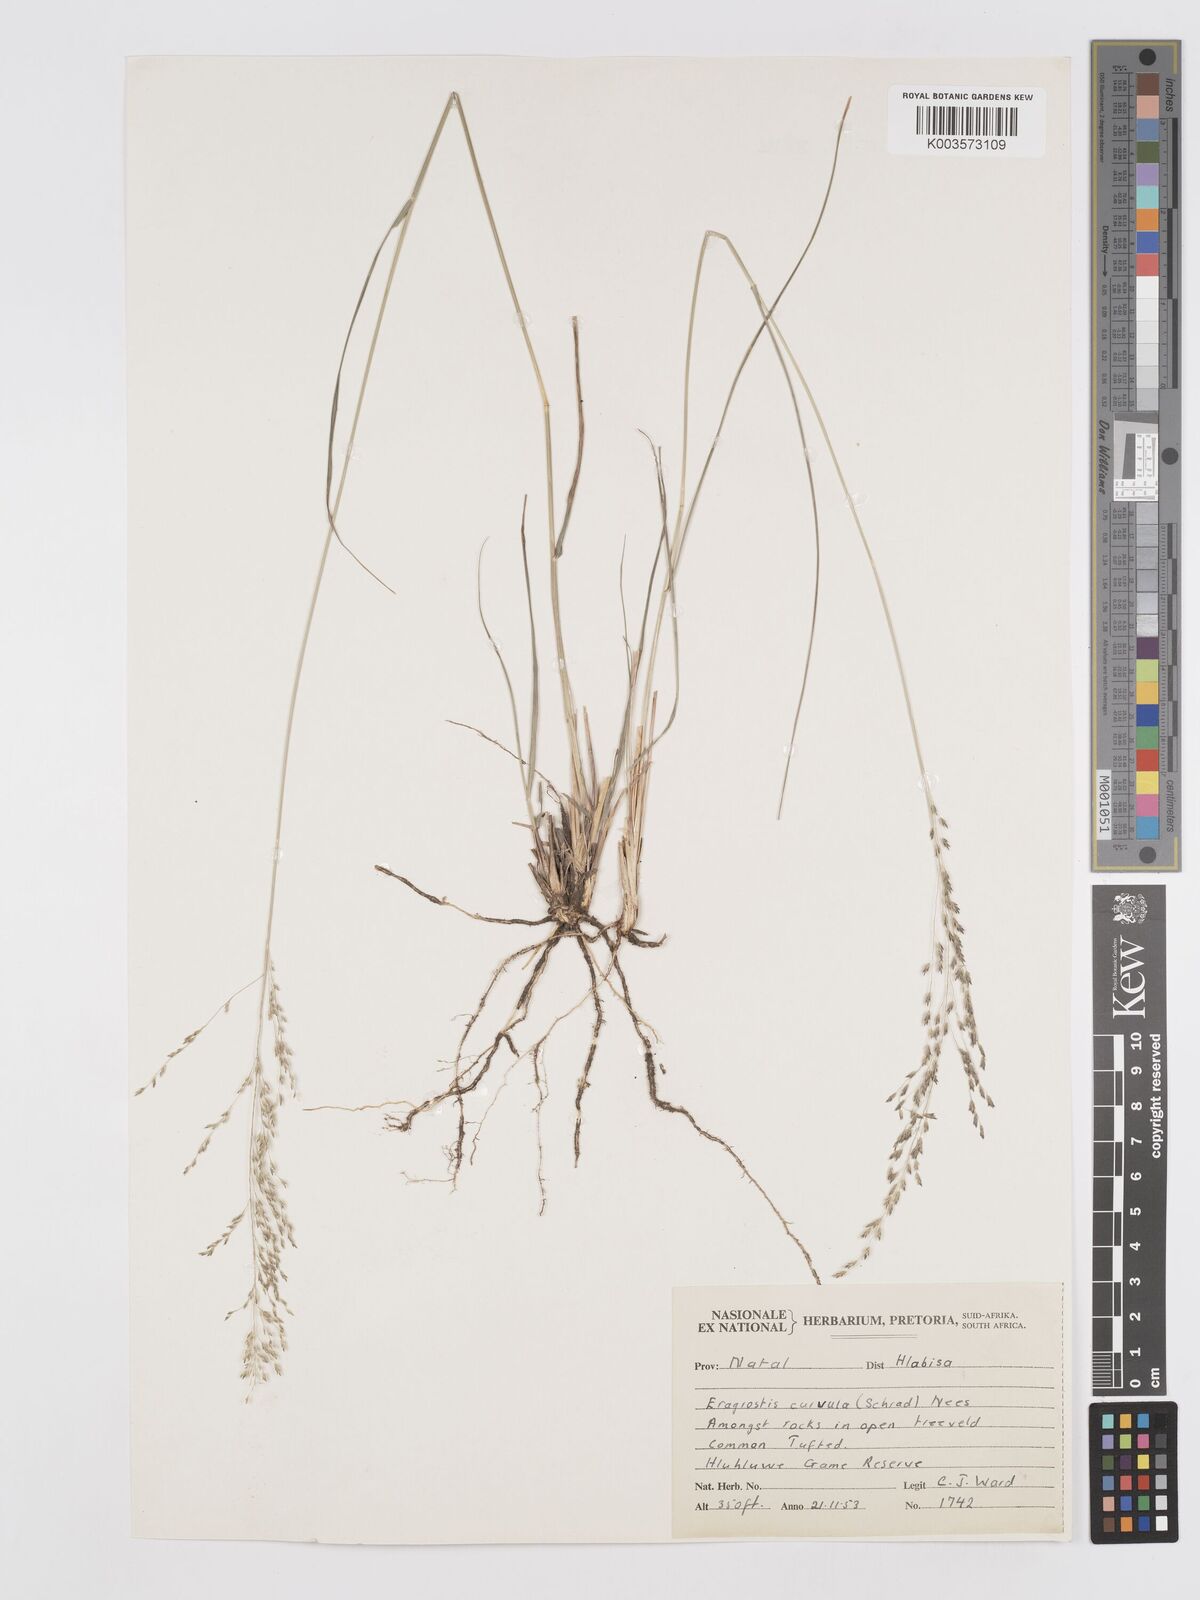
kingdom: Plantae
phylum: Tracheophyta
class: Liliopsida
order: Poales
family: Poaceae
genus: Eragrostis
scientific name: Eragrostis curvula
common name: African love-grass
